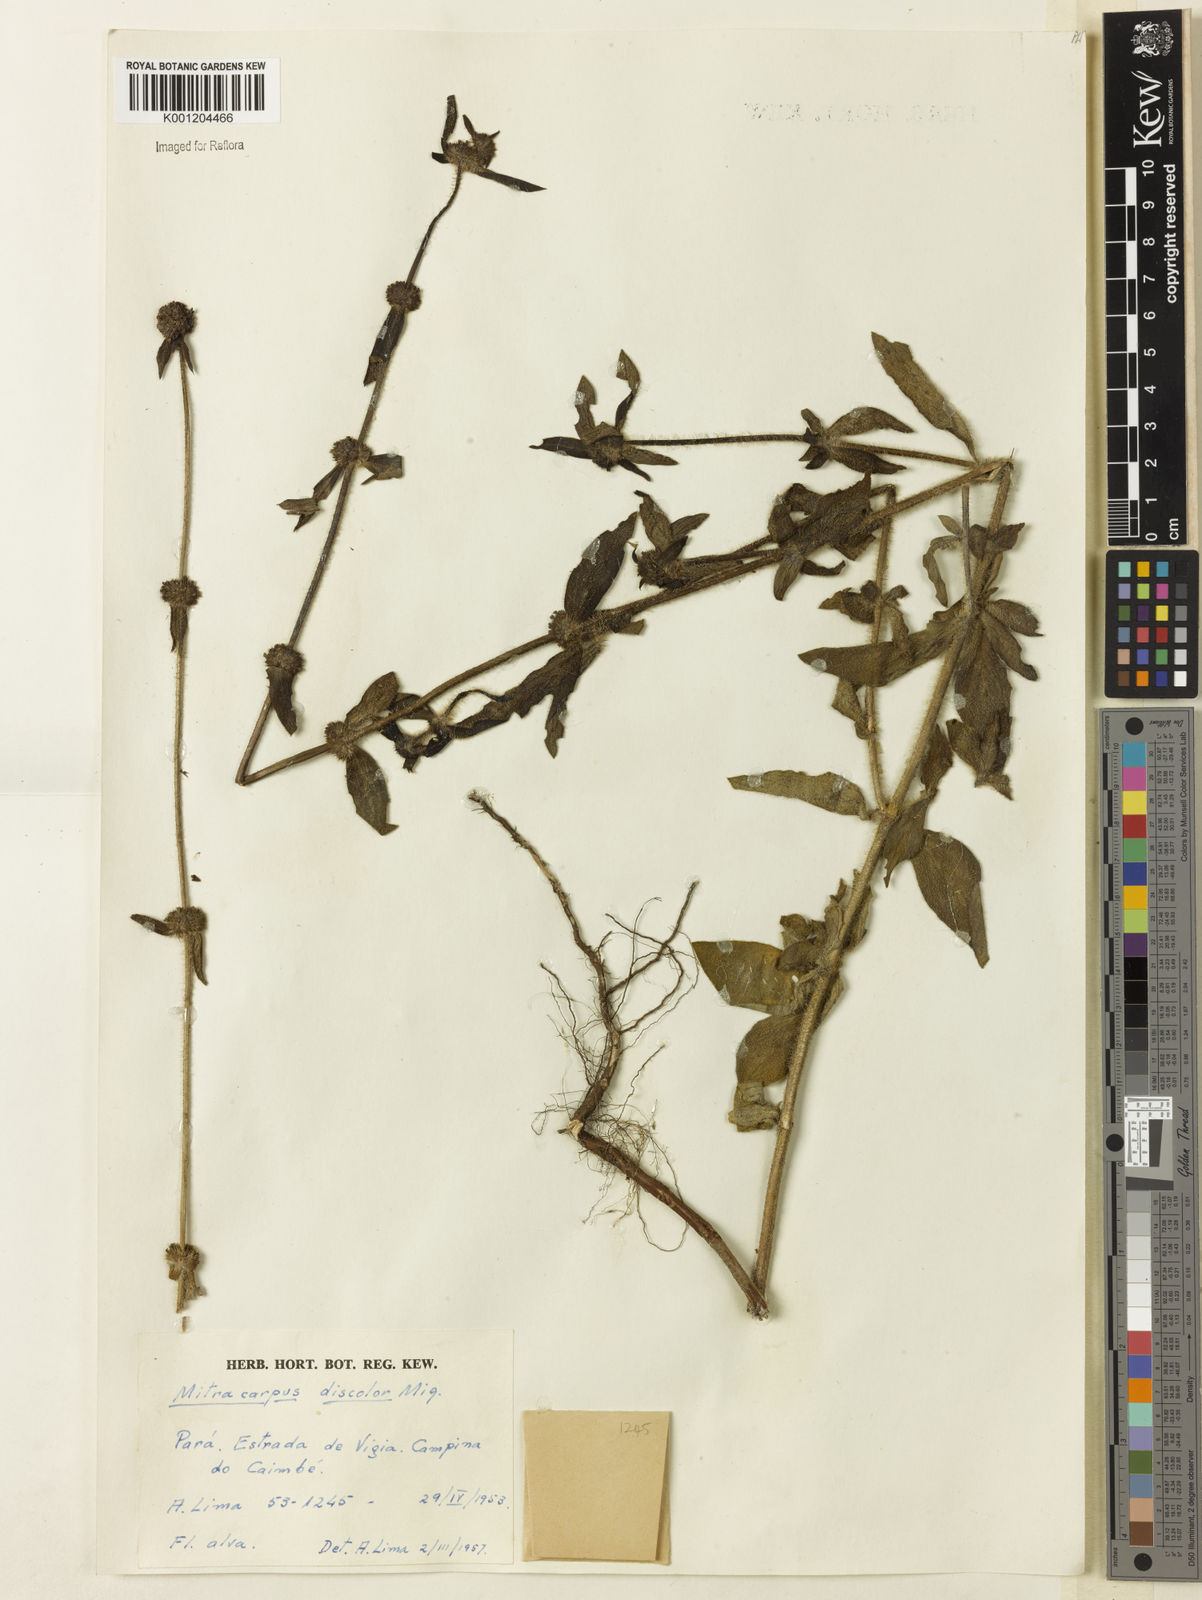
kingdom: Plantae
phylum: Tracheophyta
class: Magnoliopsida
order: Gentianales
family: Rubiaceae
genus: Mitracarpus
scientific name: Mitracarpus frigidus
